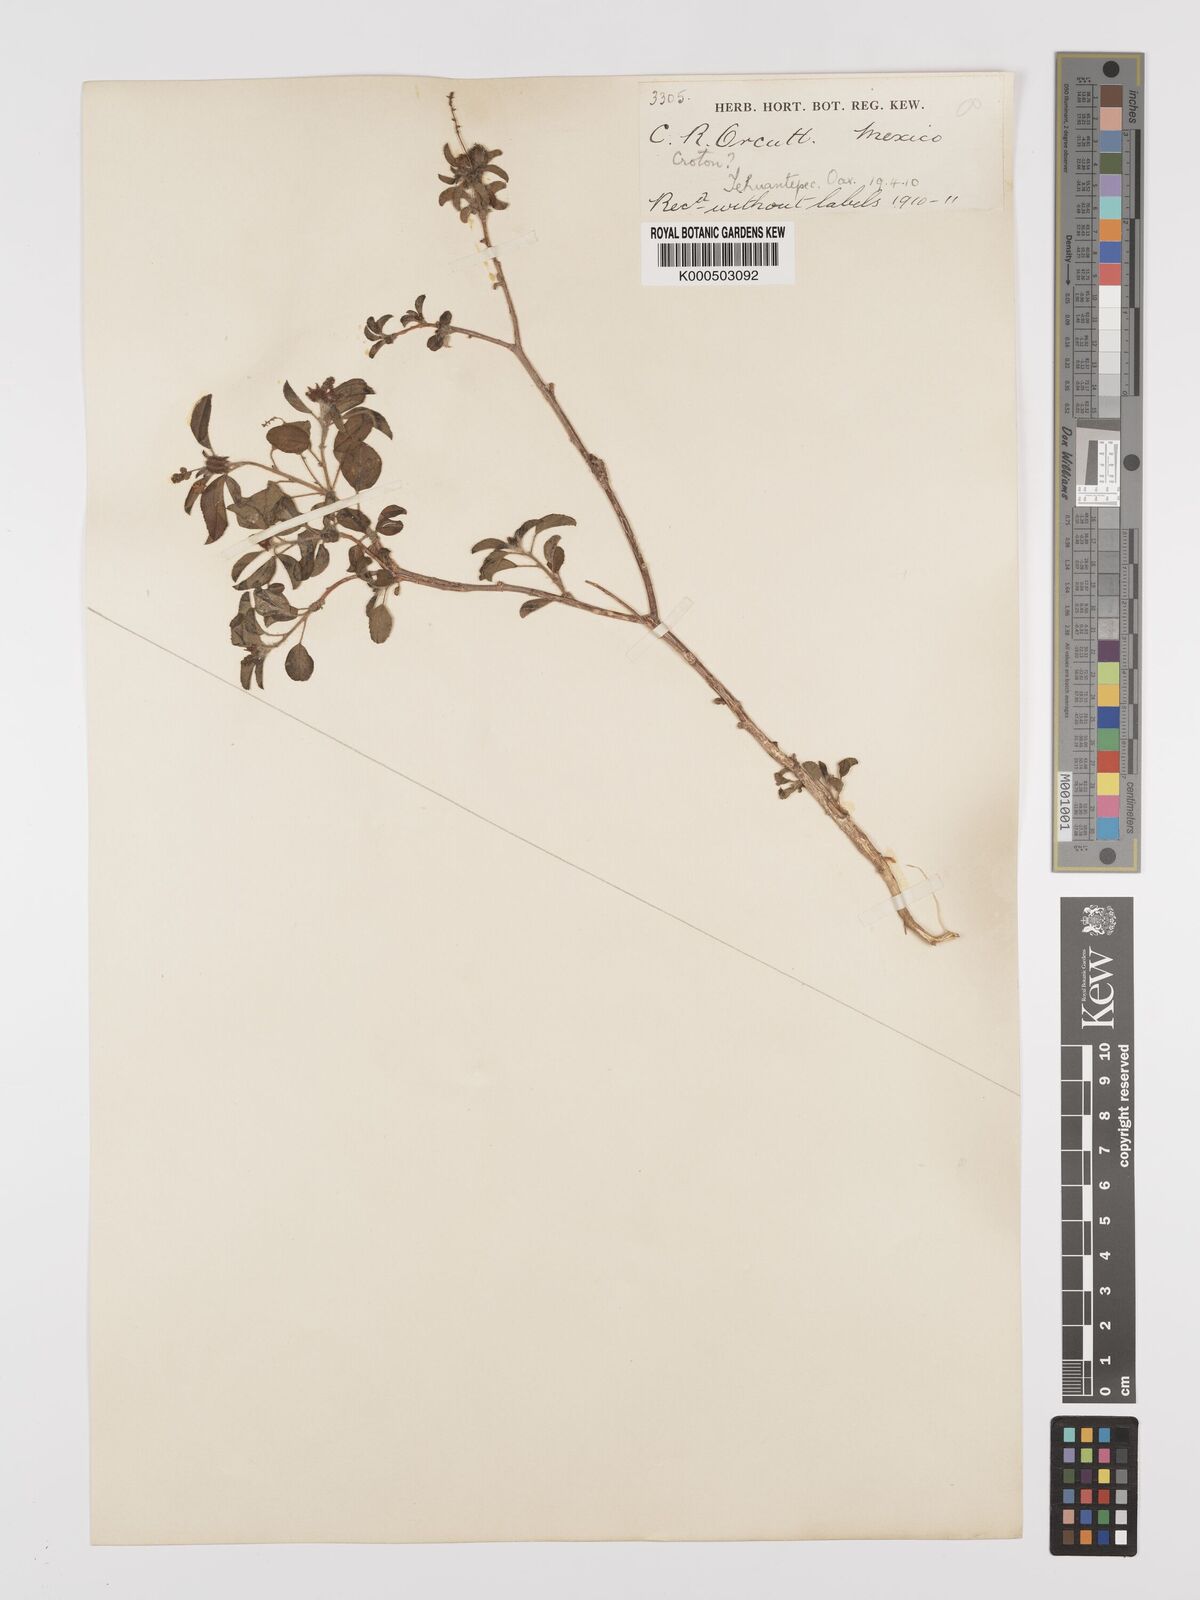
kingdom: Plantae
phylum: Tracheophyta
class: Magnoliopsida
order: Malpighiales
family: Euphorbiaceae
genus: Croton
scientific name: Croton
